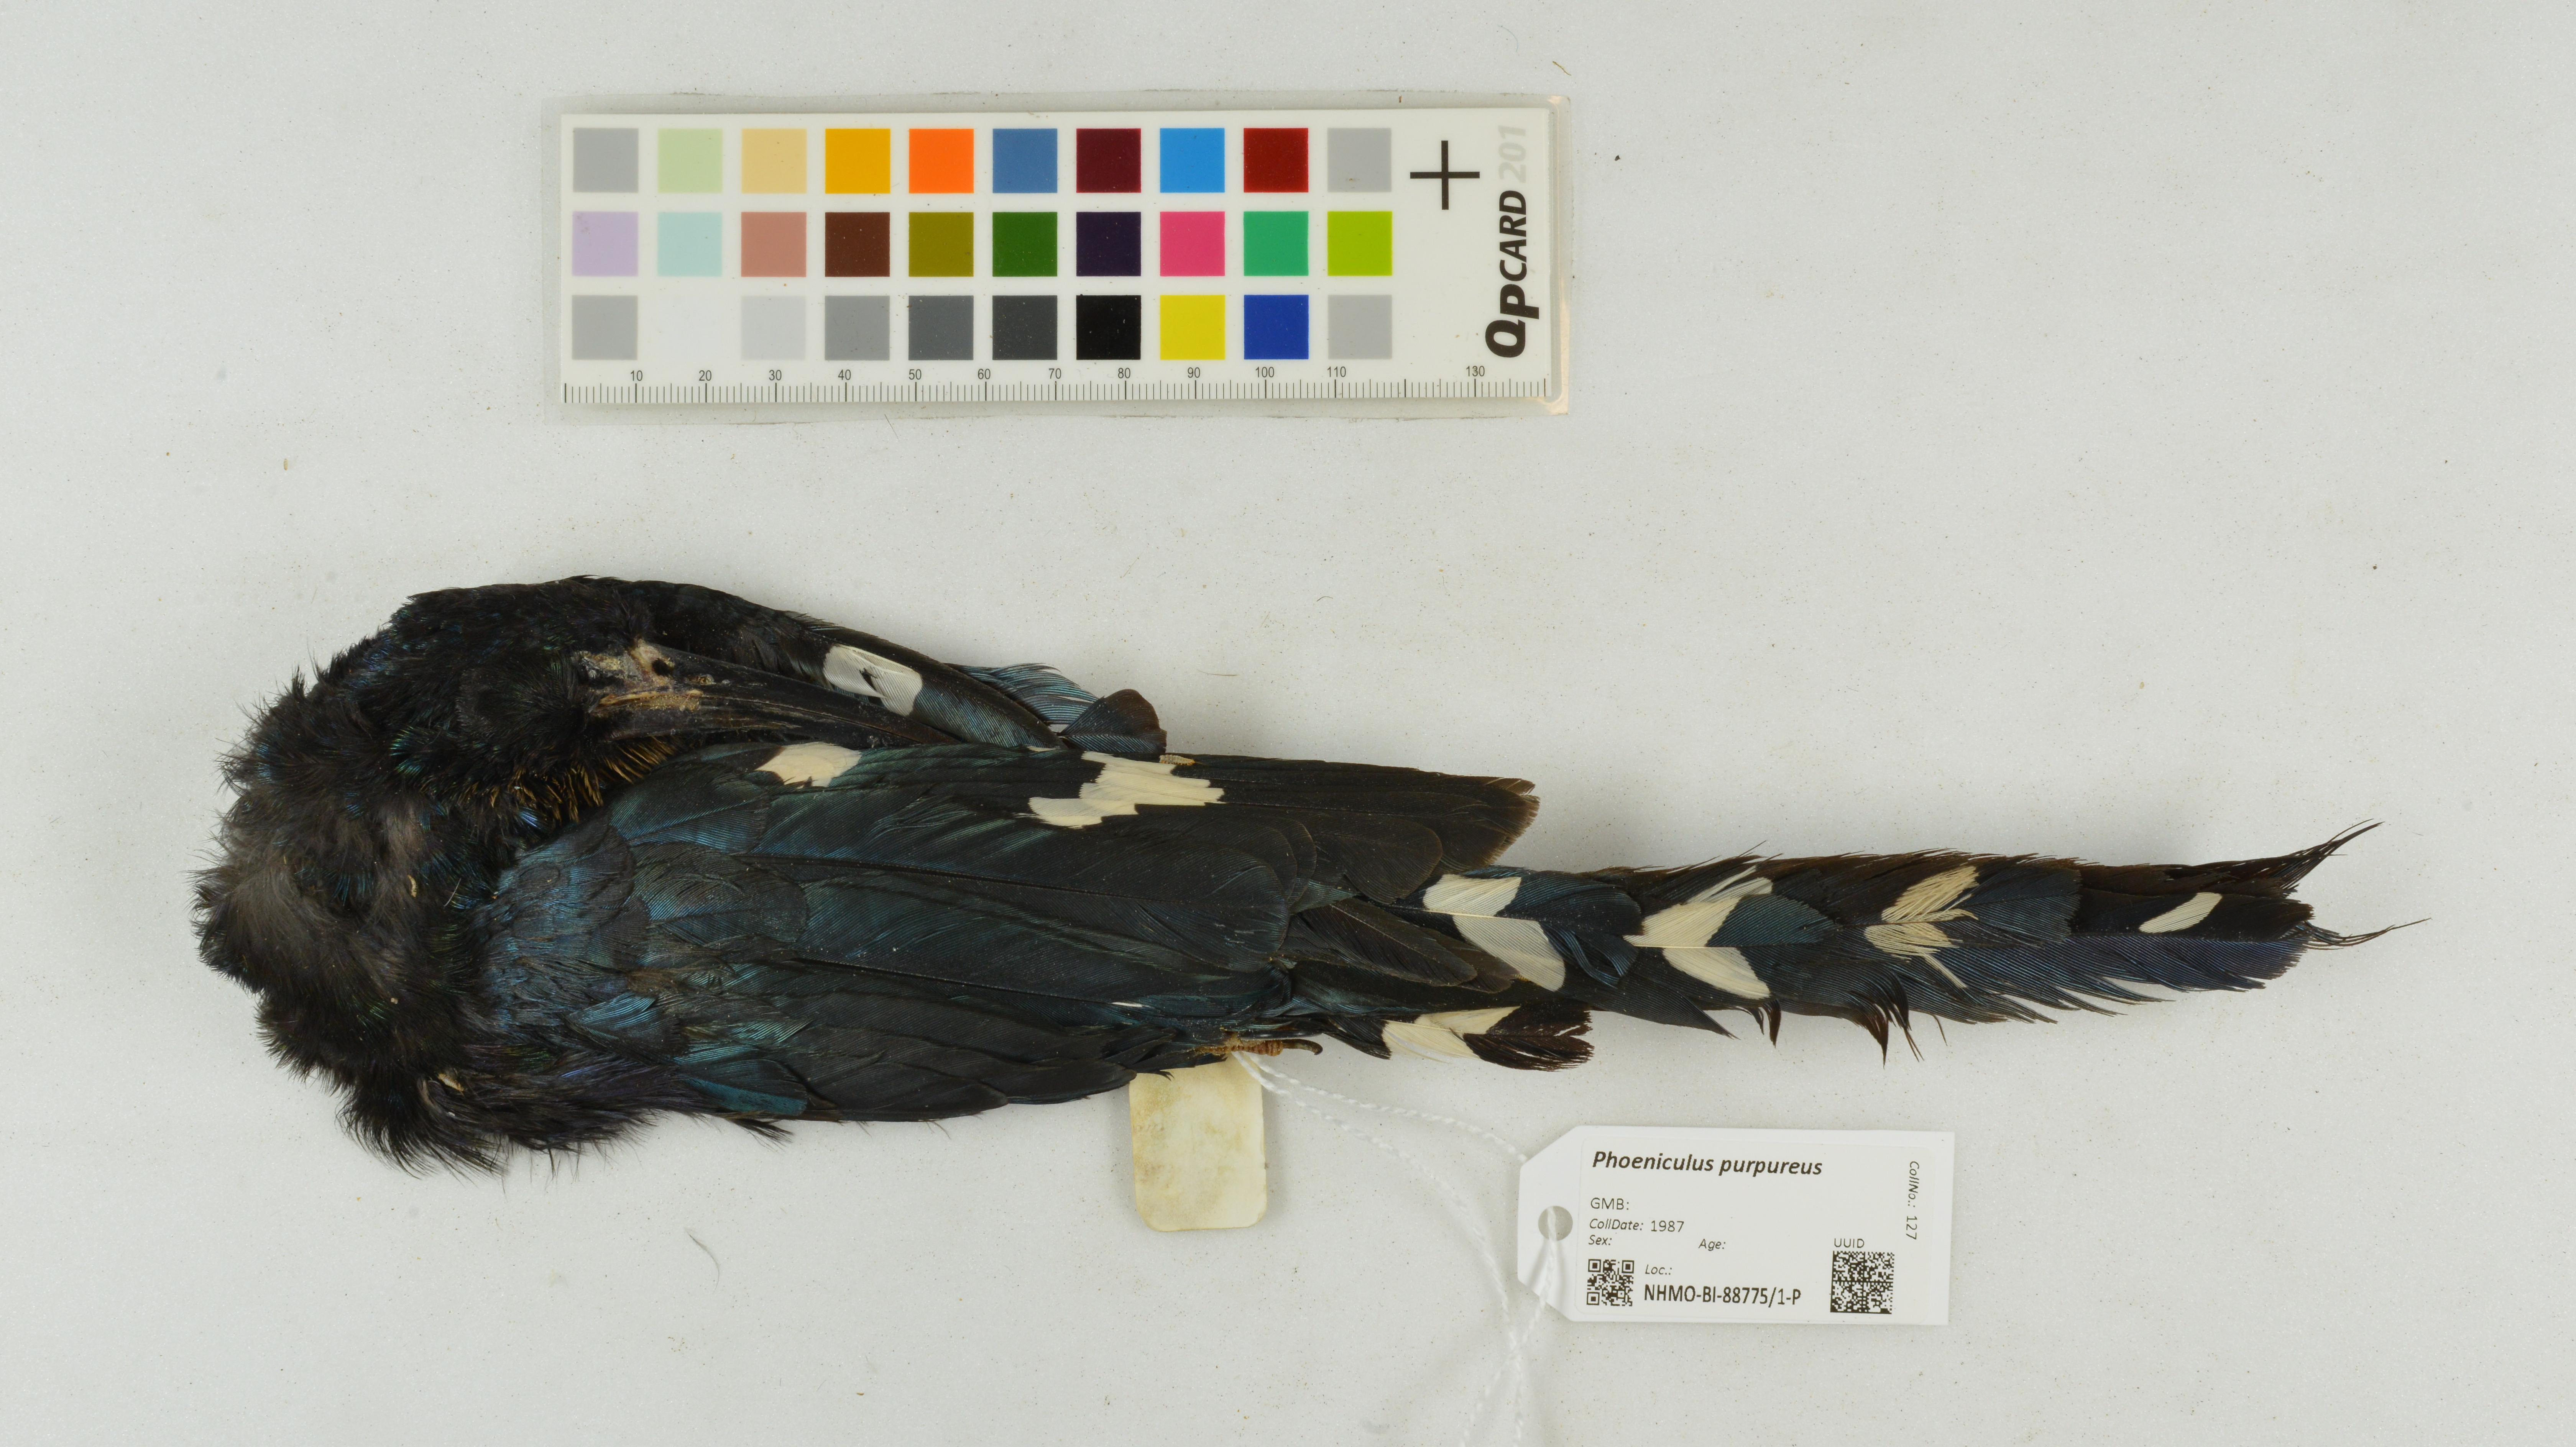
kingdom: Animalia
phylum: Chordata
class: Aves
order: Bucerotiformes
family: Phoeniculidae
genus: Phoeniculus
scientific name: Phoeniculus purpureus
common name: Green woodhoopoe
